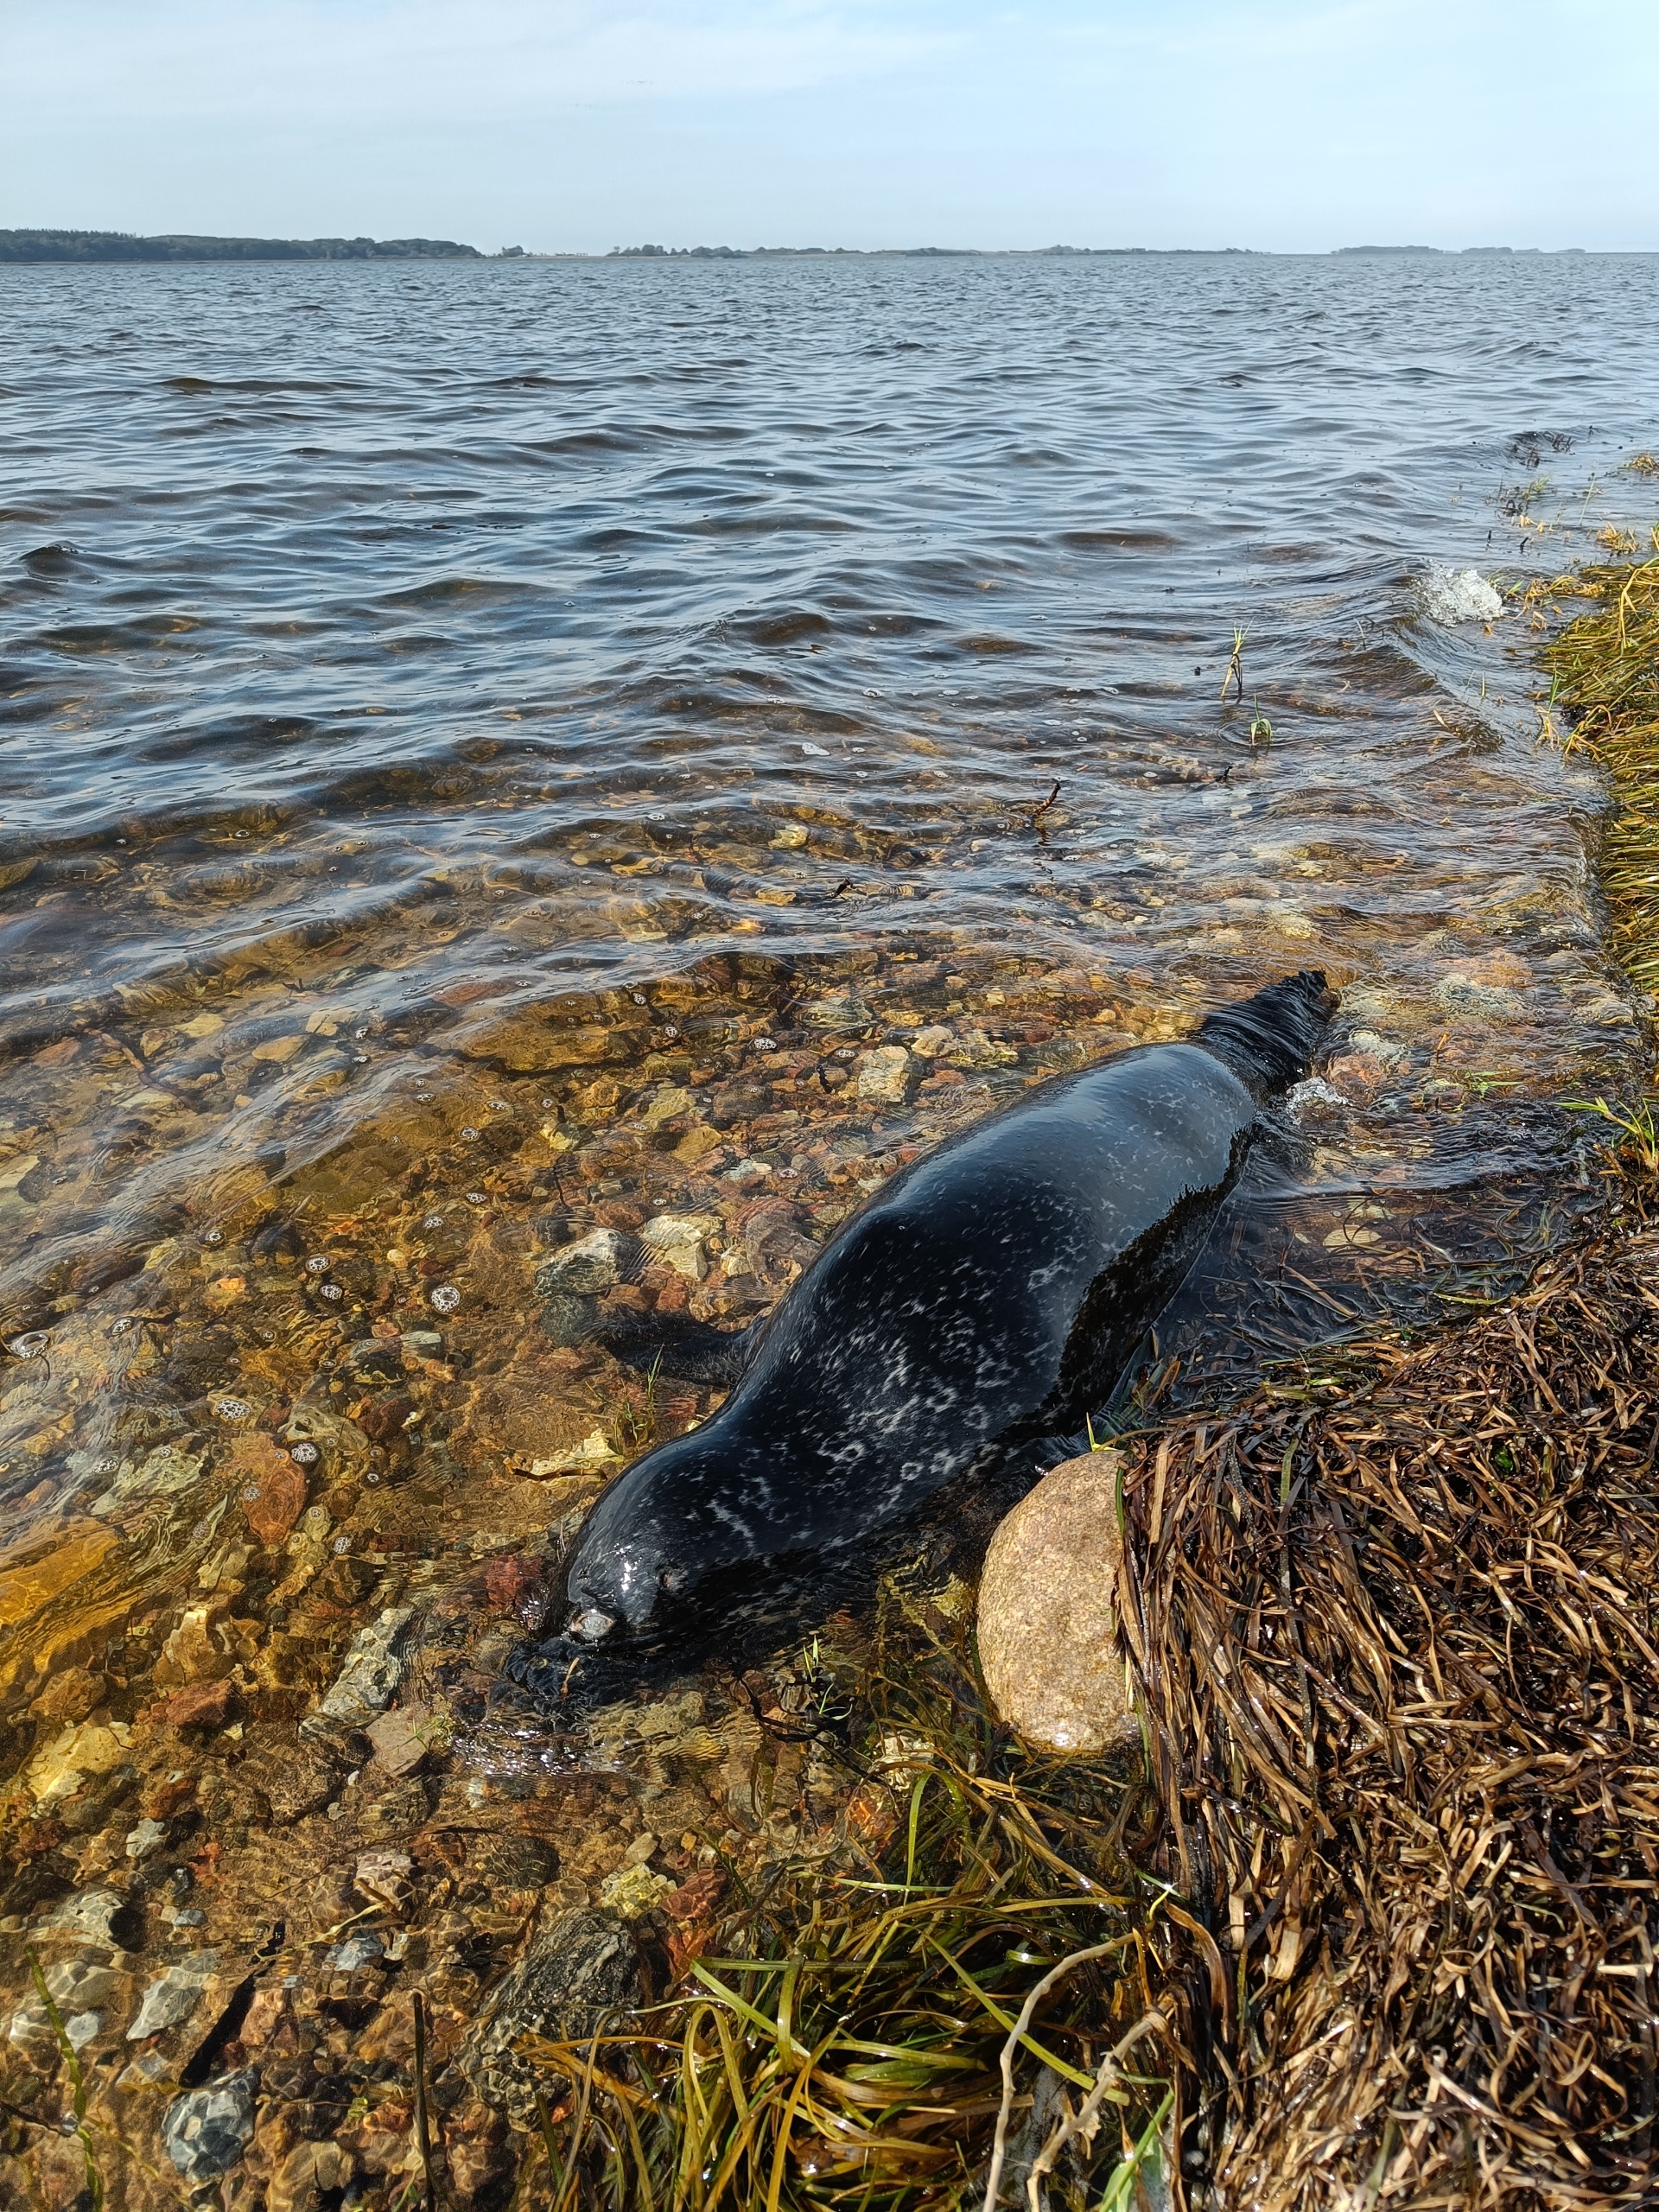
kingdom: Animalia
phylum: Chordata
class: Mammalia
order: Carnivora
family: Phocidae
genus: Phoca
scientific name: Phoca vitulina
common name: Spættet sæl
